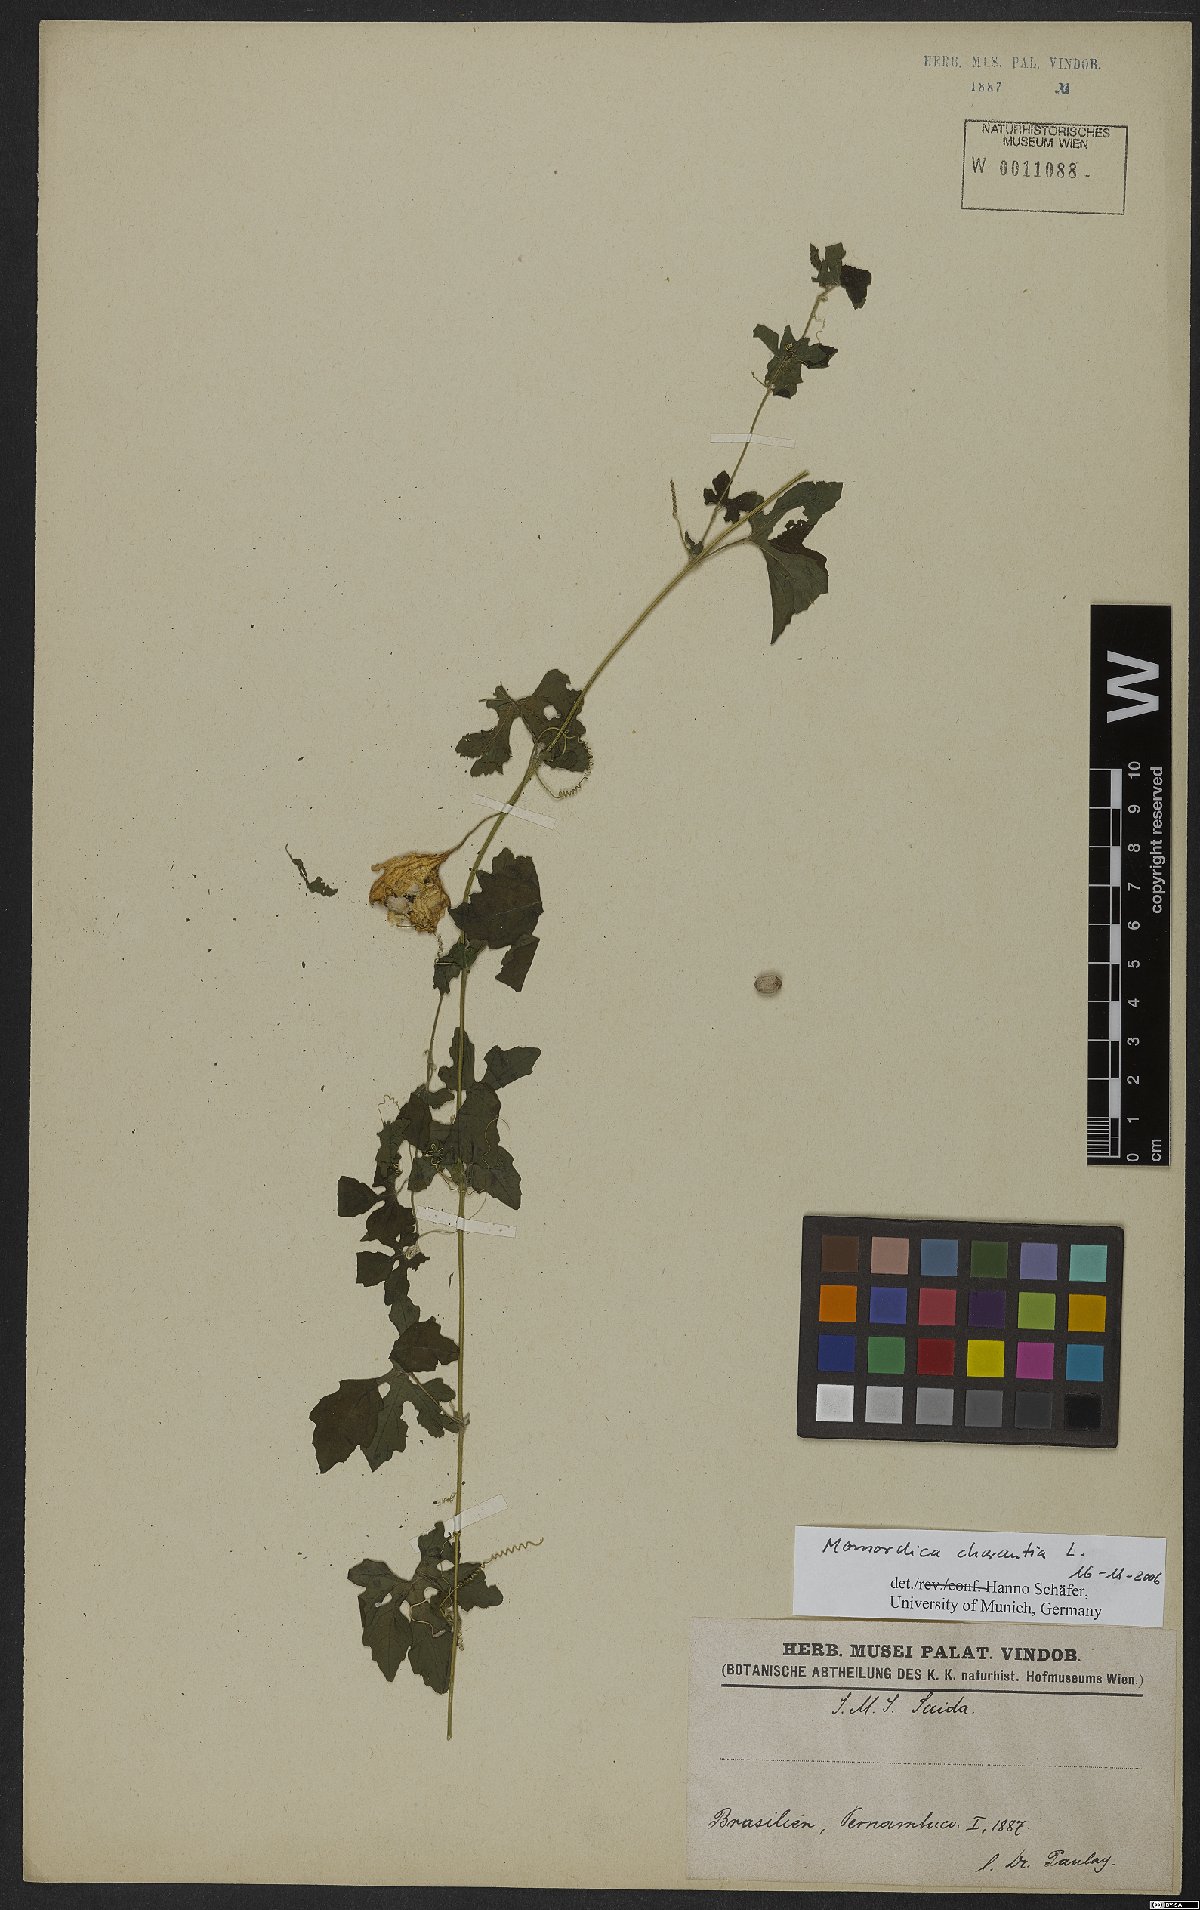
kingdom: Plantae
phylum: Tracheophyta
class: Magnoliopsida
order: Cucurbitales
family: Cucurbitaceae
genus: Momordica
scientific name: Momordica charantia
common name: Balsampear
